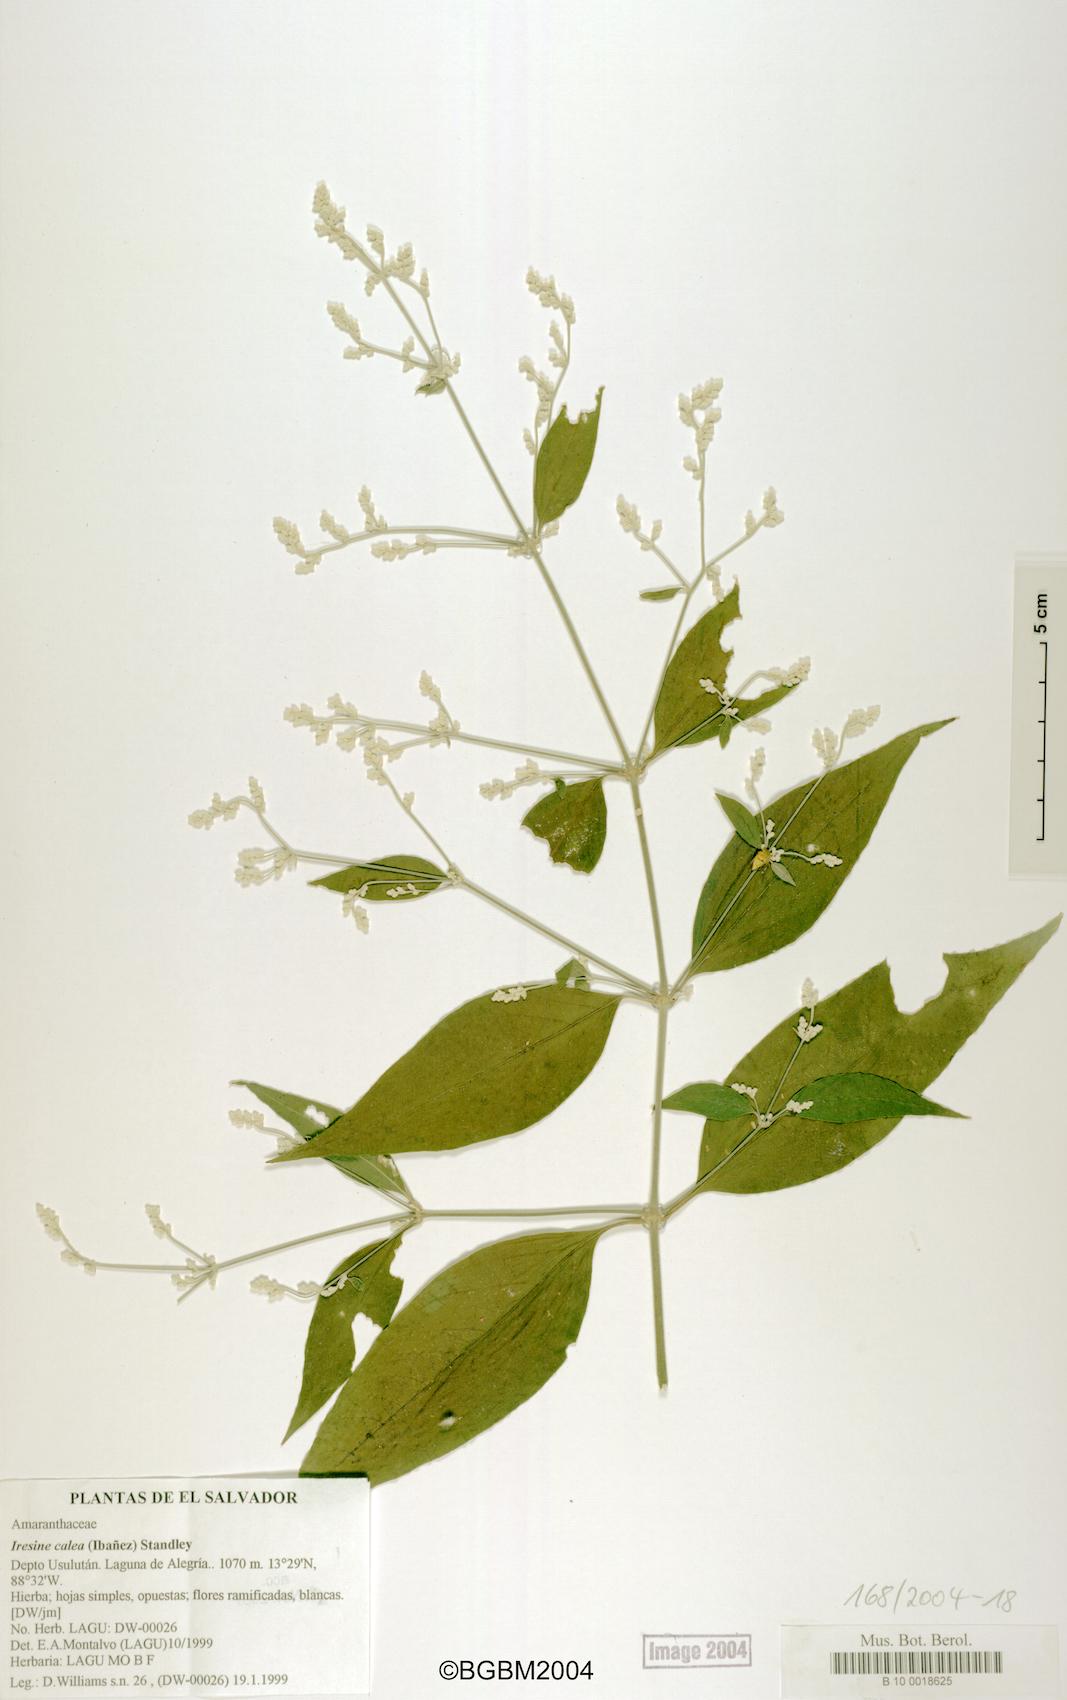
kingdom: Plantae
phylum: Tracheophyta
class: Magnoliopsida
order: Caryophyllales
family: Amaranthaceae
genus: Iresine
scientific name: Iresine latifolia
